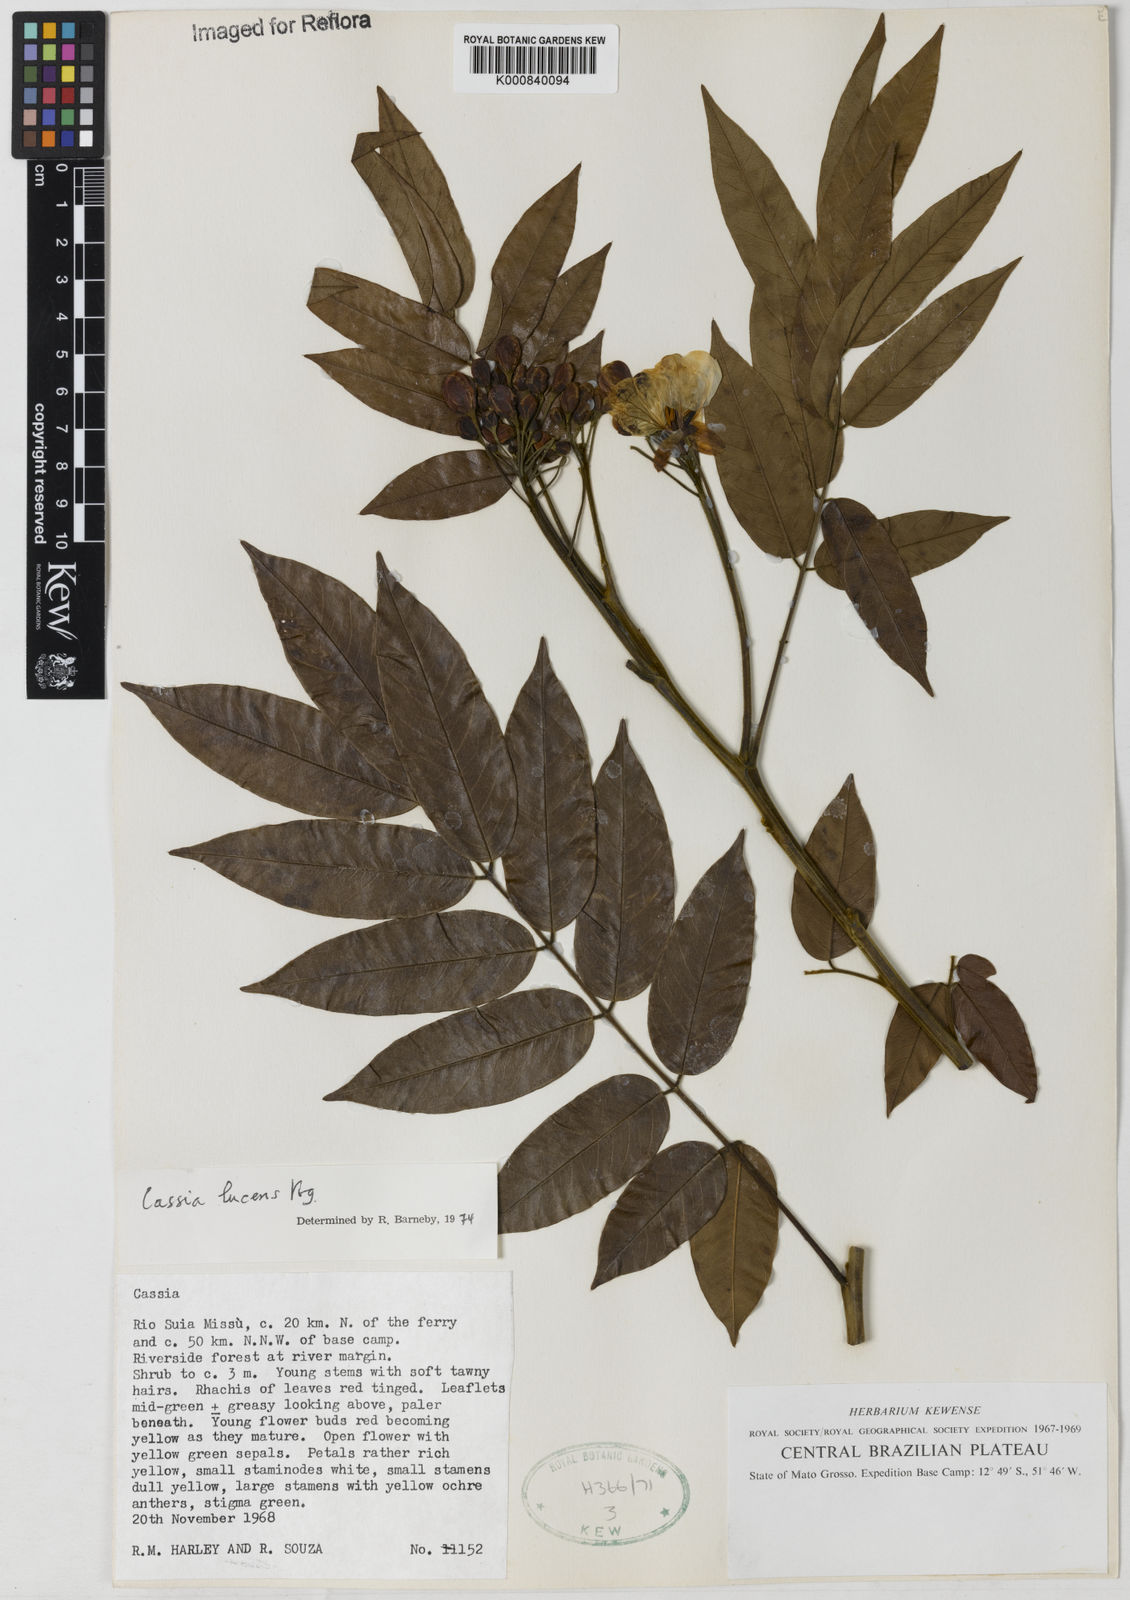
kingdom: Plantae
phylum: Tracheophyta
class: Magnoliopsida
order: Fabales
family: Fabaceae
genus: Senna
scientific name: Senna silvestris
